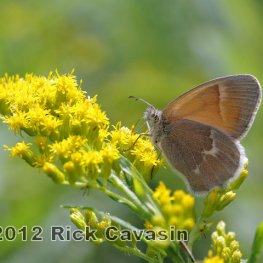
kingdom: Animalia
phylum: Arthropoda
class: Insecta
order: Lepidoptera
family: Nymphalidae
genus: Coenonympha
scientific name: Coenonympha tullia
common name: Large Heath
